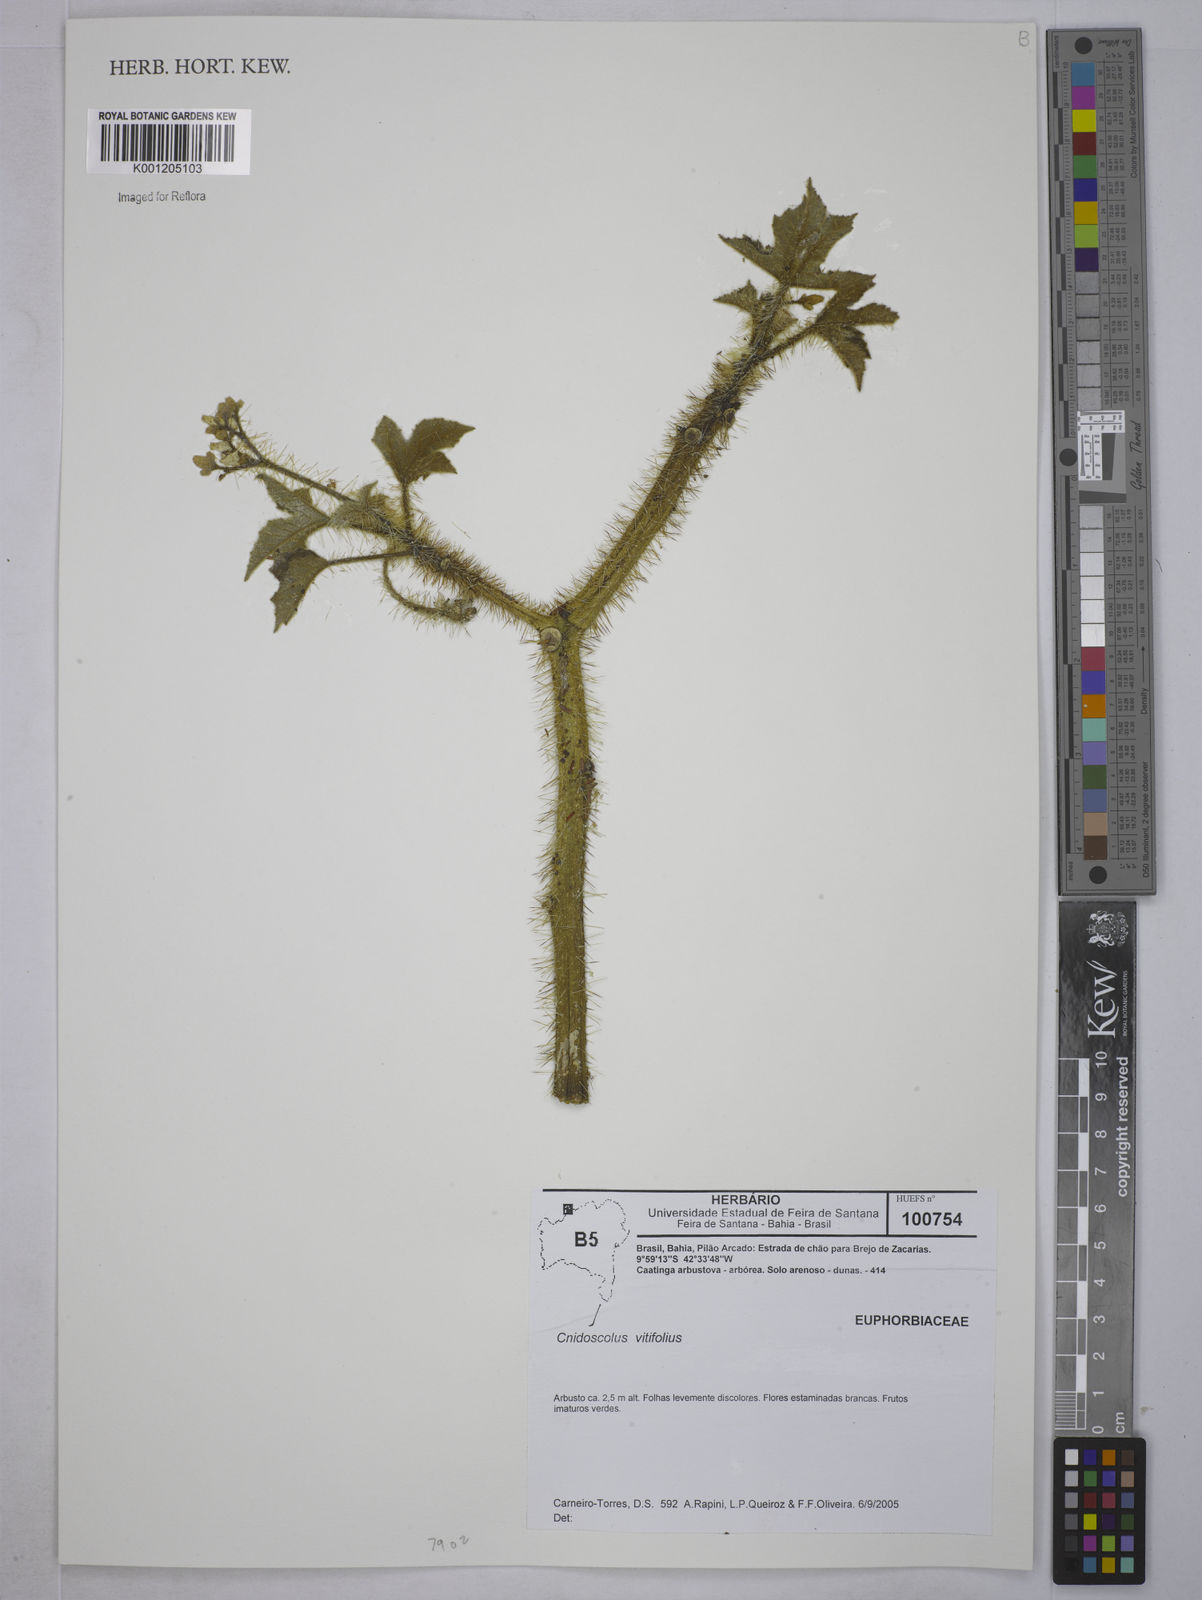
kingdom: Plantae
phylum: Tracheophyta
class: Magnoliopsida
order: Malpighiales
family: Euphorbiaceae
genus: Cnidoscolus
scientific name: Cnidoscolus vitifolius
